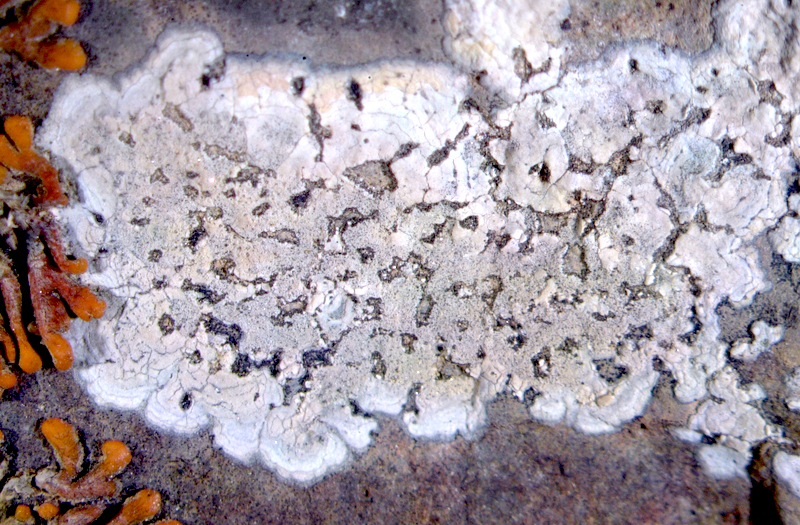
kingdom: Fungi
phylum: Ascomycota
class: Lecanoromycetes
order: Caliciales
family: Caliciaceae
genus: Buellia
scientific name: Buellia
